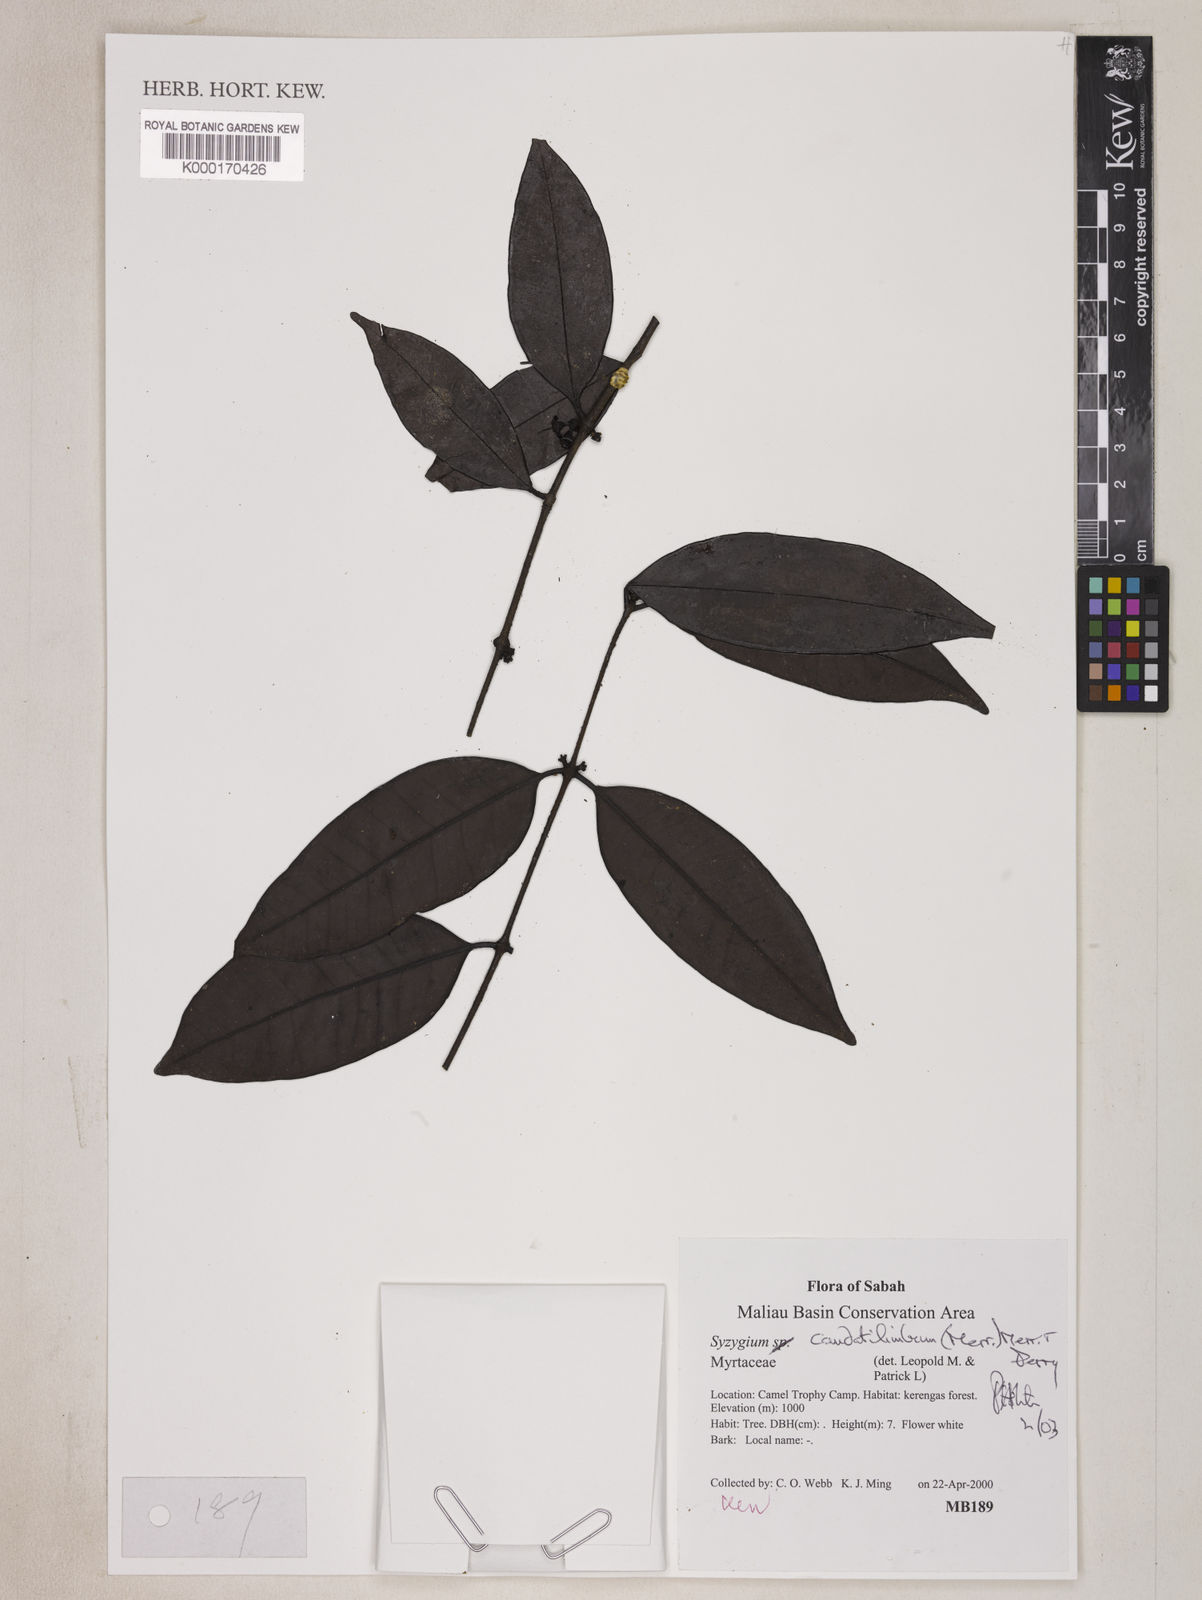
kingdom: Plantae
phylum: Tracheophyta
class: Magnoliopsida
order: Myrtales
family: Myrtaceae
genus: Syzygium
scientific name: Syzygium caudatilimbum
